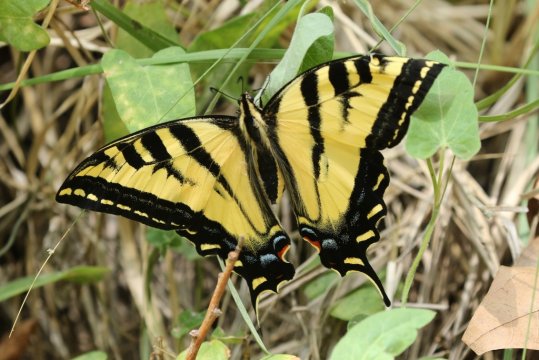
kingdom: Animalia
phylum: Arthropoda
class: Insecta
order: Lepidoptera
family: Papilionidae
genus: Pterourus
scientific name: Pterourus rutulus
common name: Western Tiger Swallowtail
